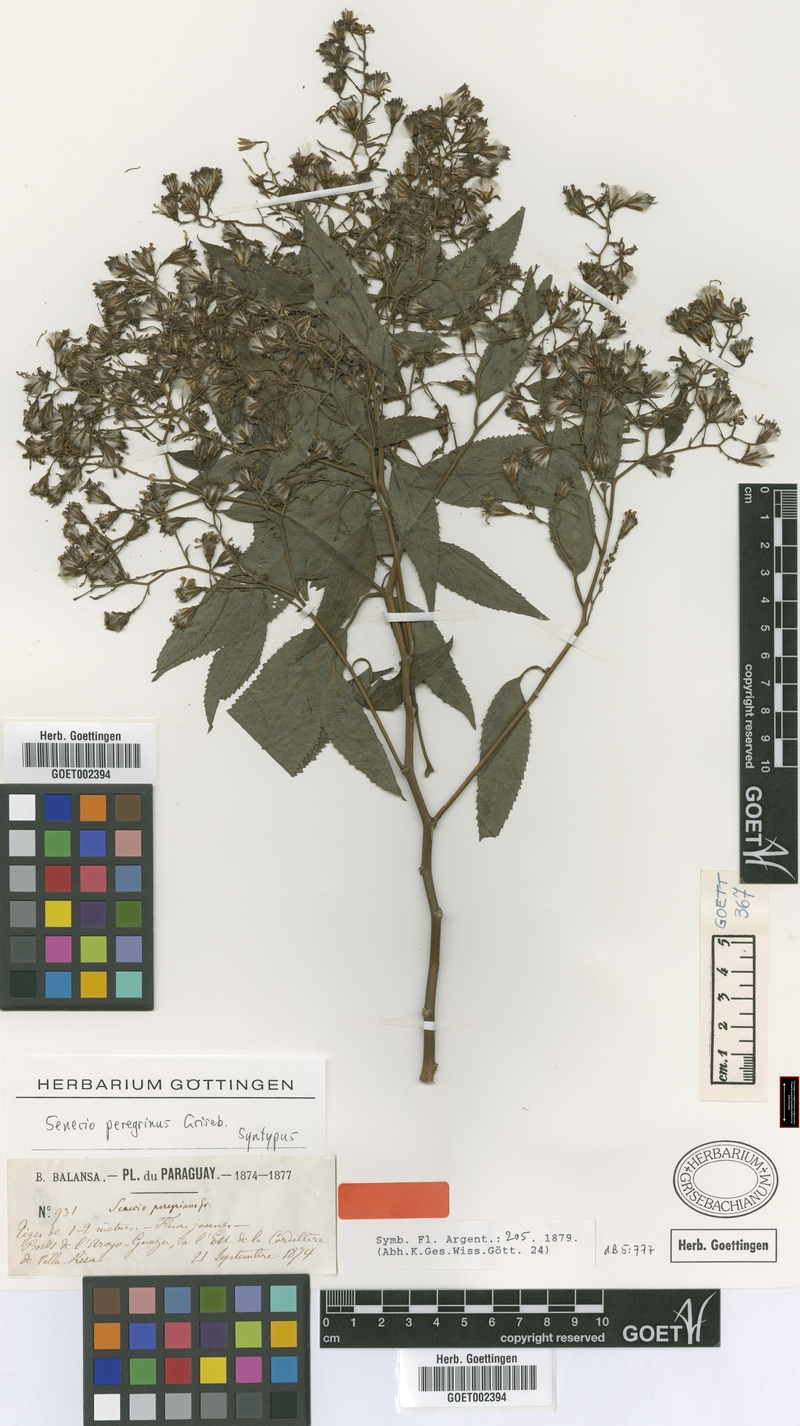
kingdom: Plantae
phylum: Tracheophyta
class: Magnoliopsida
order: Asterales
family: Asteraceae
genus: Dendrophorbium
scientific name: Dendrophorbium peregrinum
